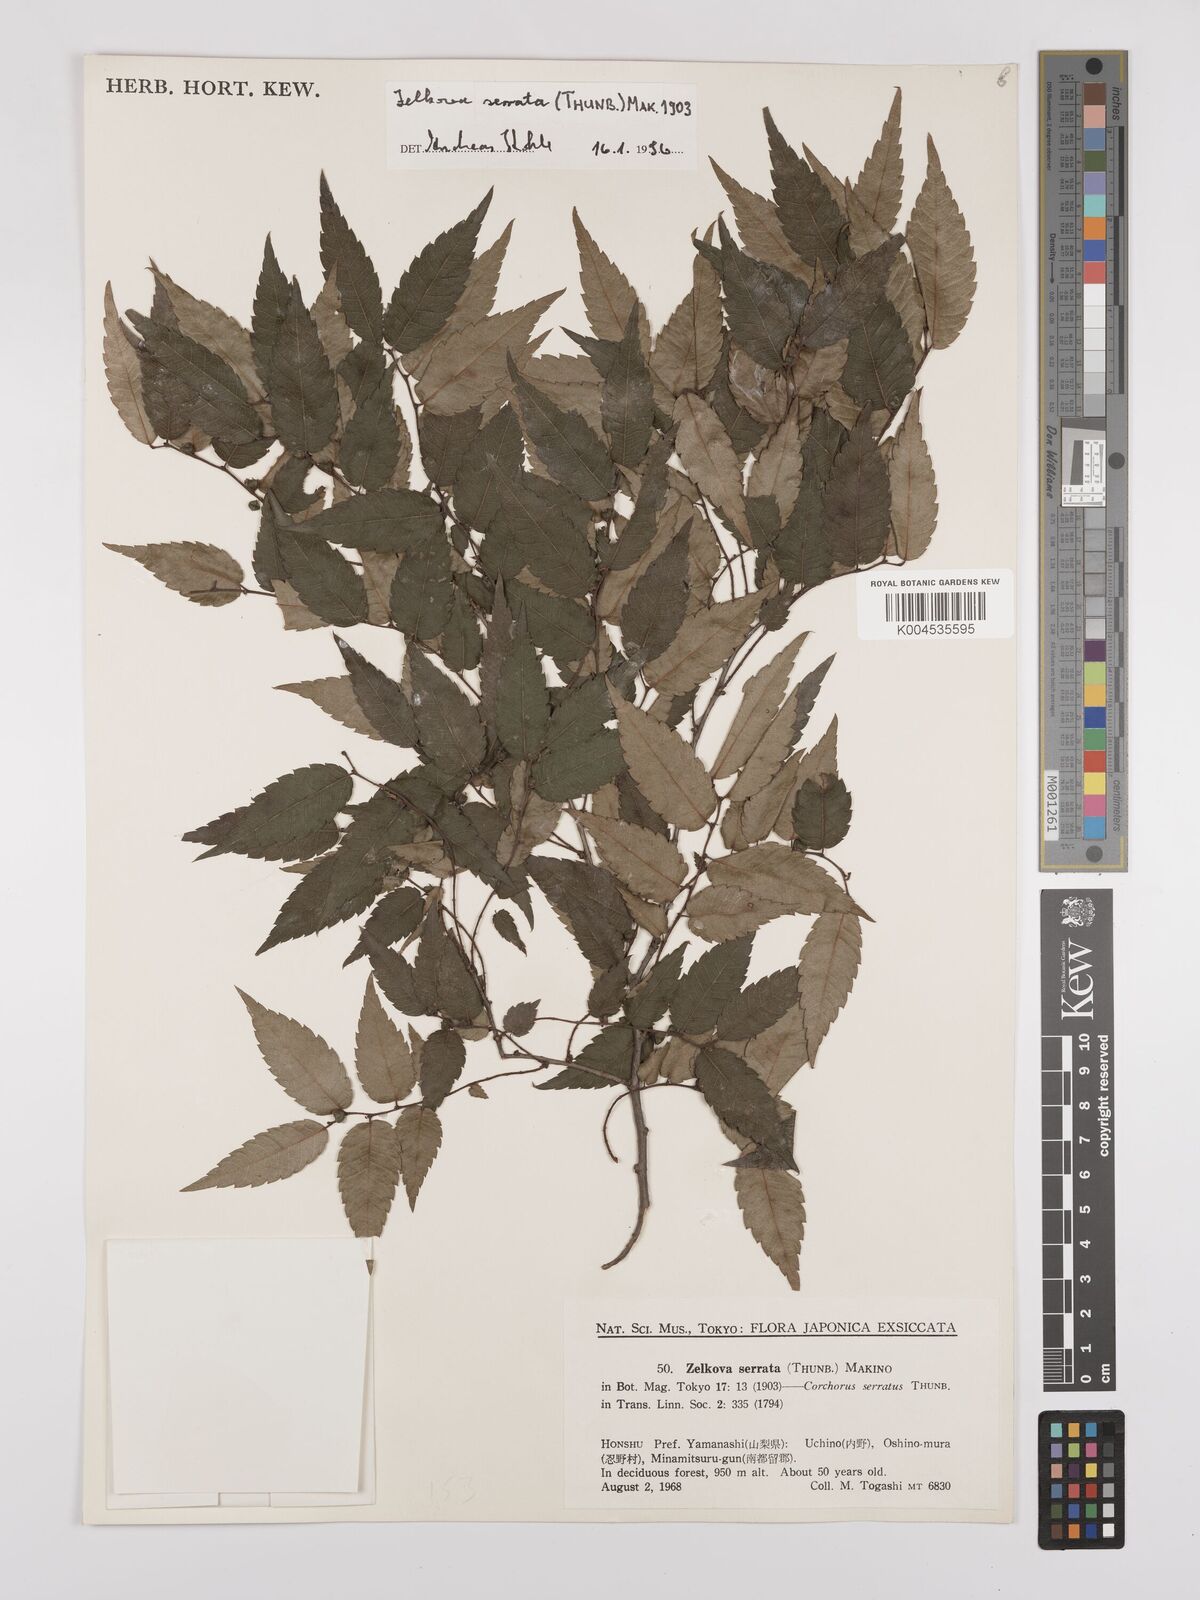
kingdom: Plantae
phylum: Tracheophyta
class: Magnoliopsida
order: Rosales
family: Ulmaceae
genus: Zelkova
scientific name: Zelkova serrata
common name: Japanese zelkova
